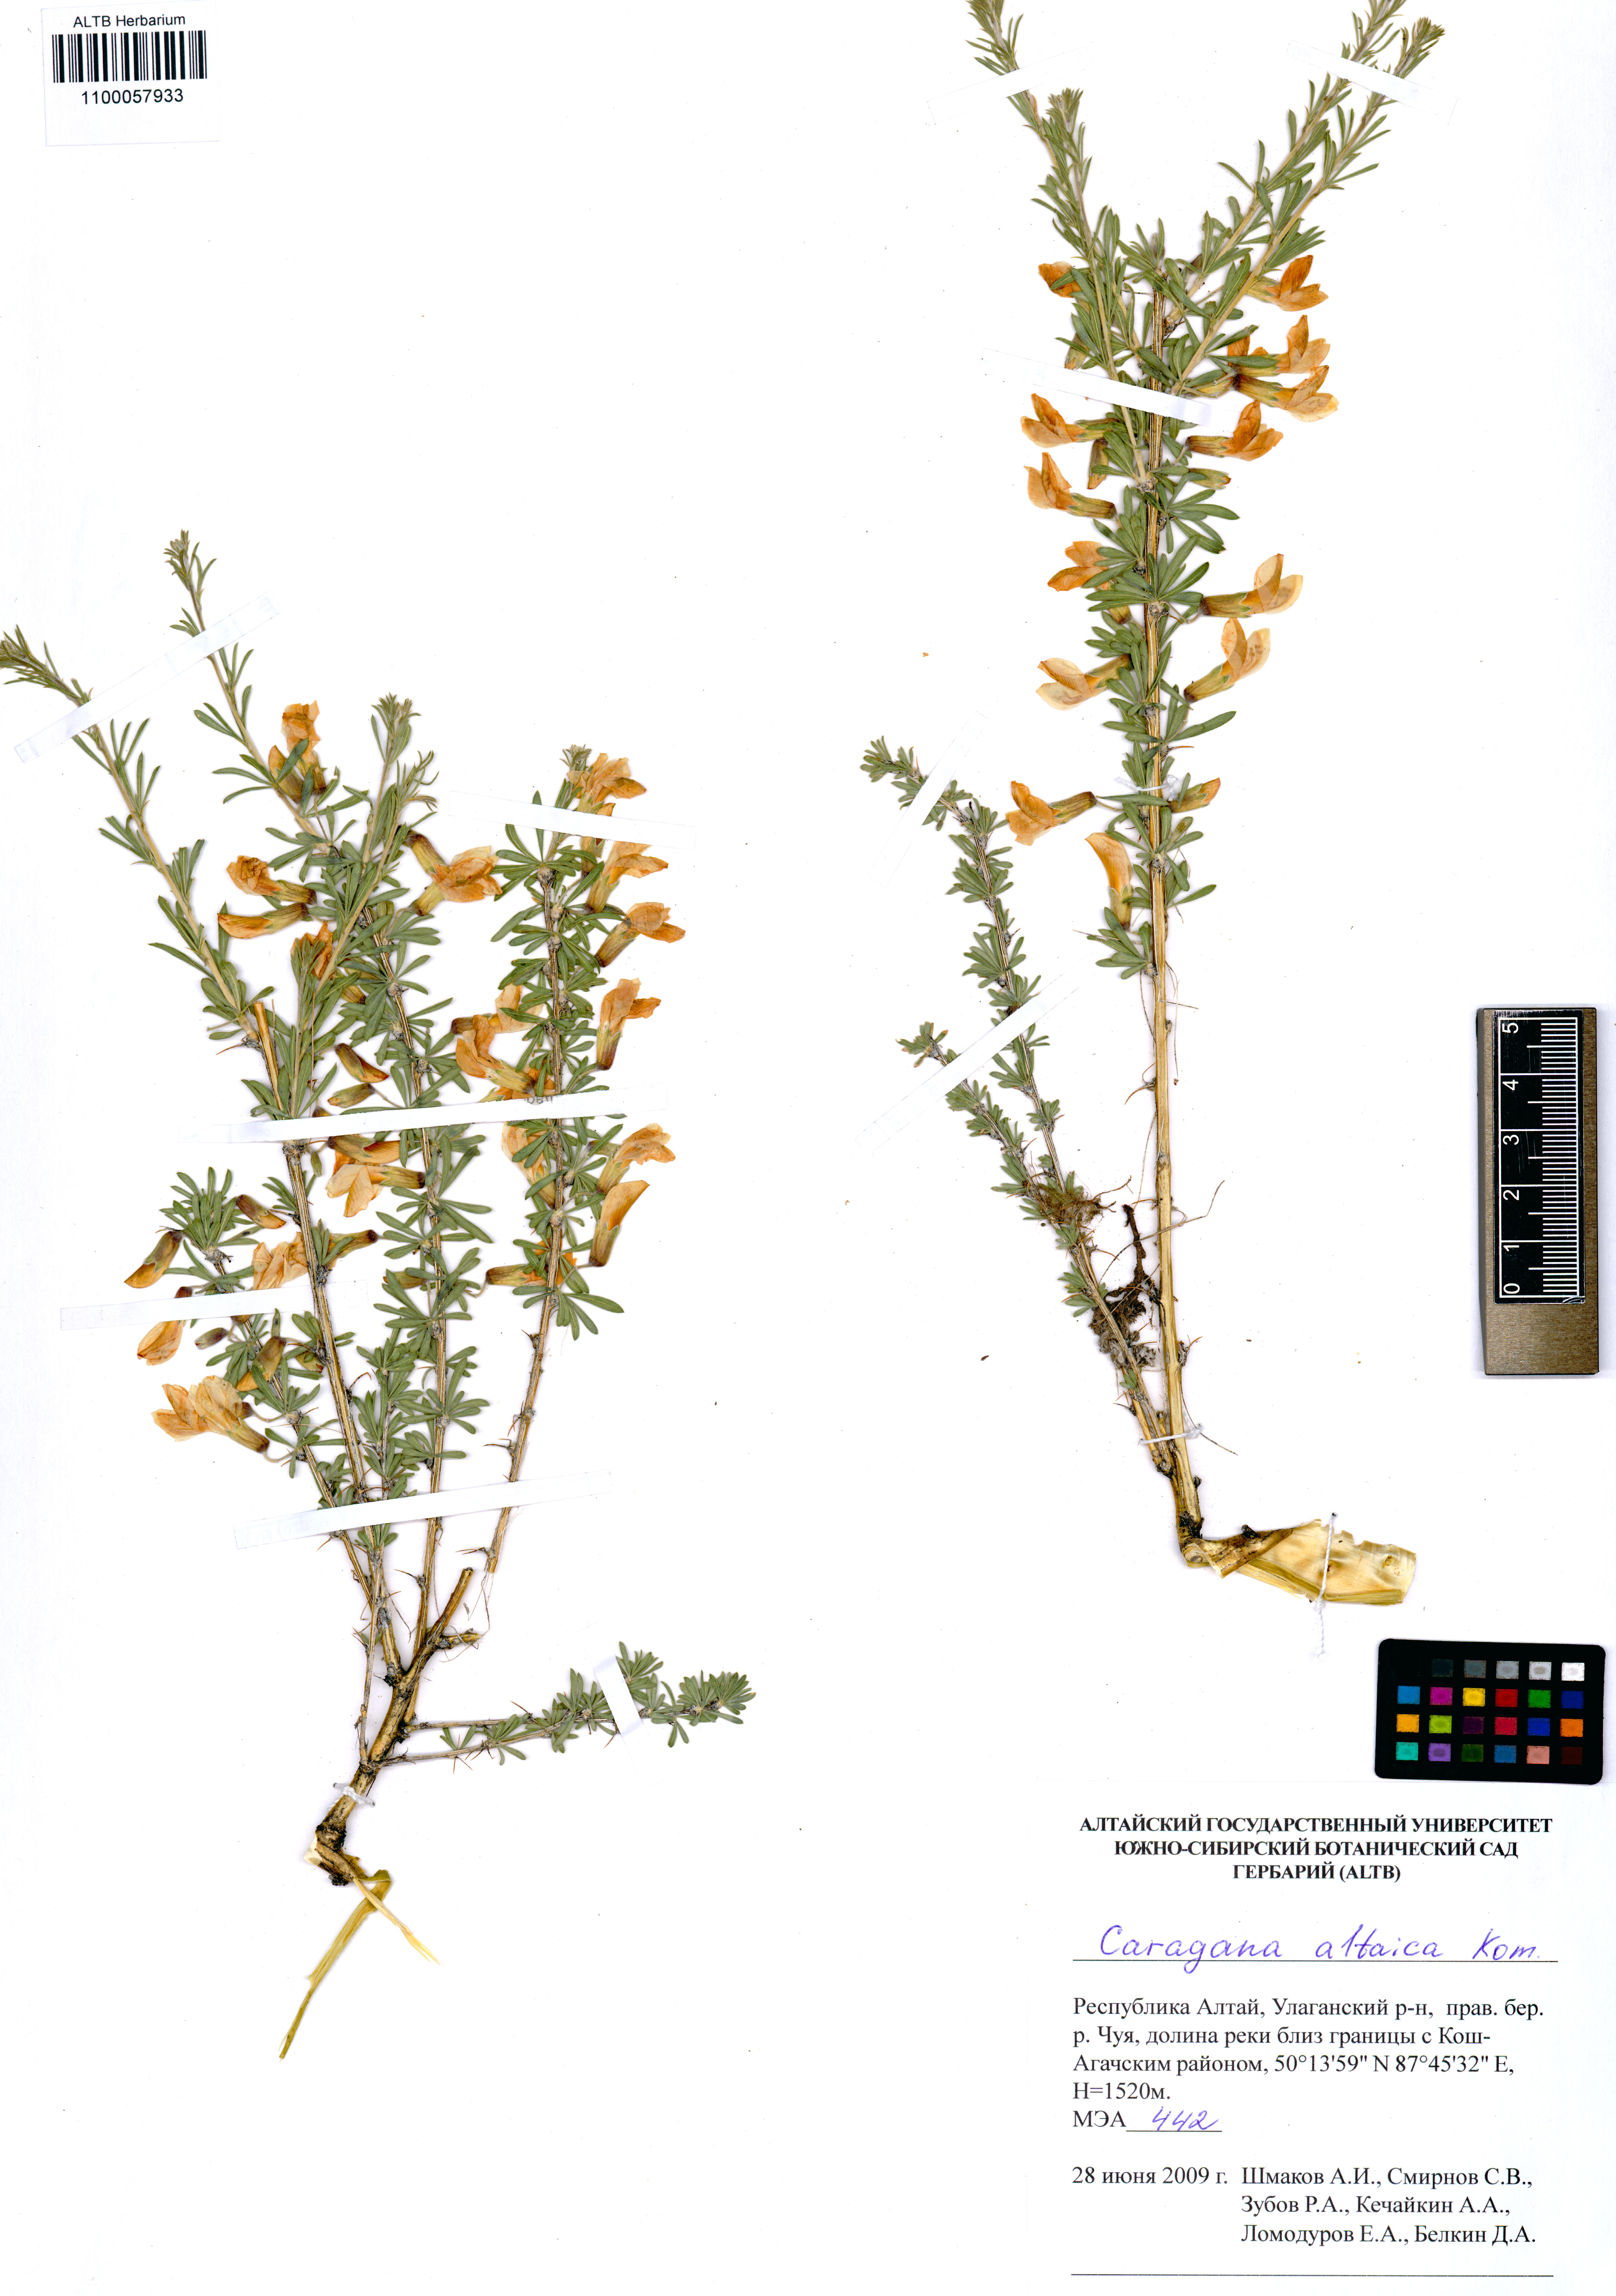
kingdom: Plantae
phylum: Tracheophyta
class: Magnoliopsida
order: Fabales
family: Fabaceae
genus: Caragana
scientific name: Caragana pygmaea
